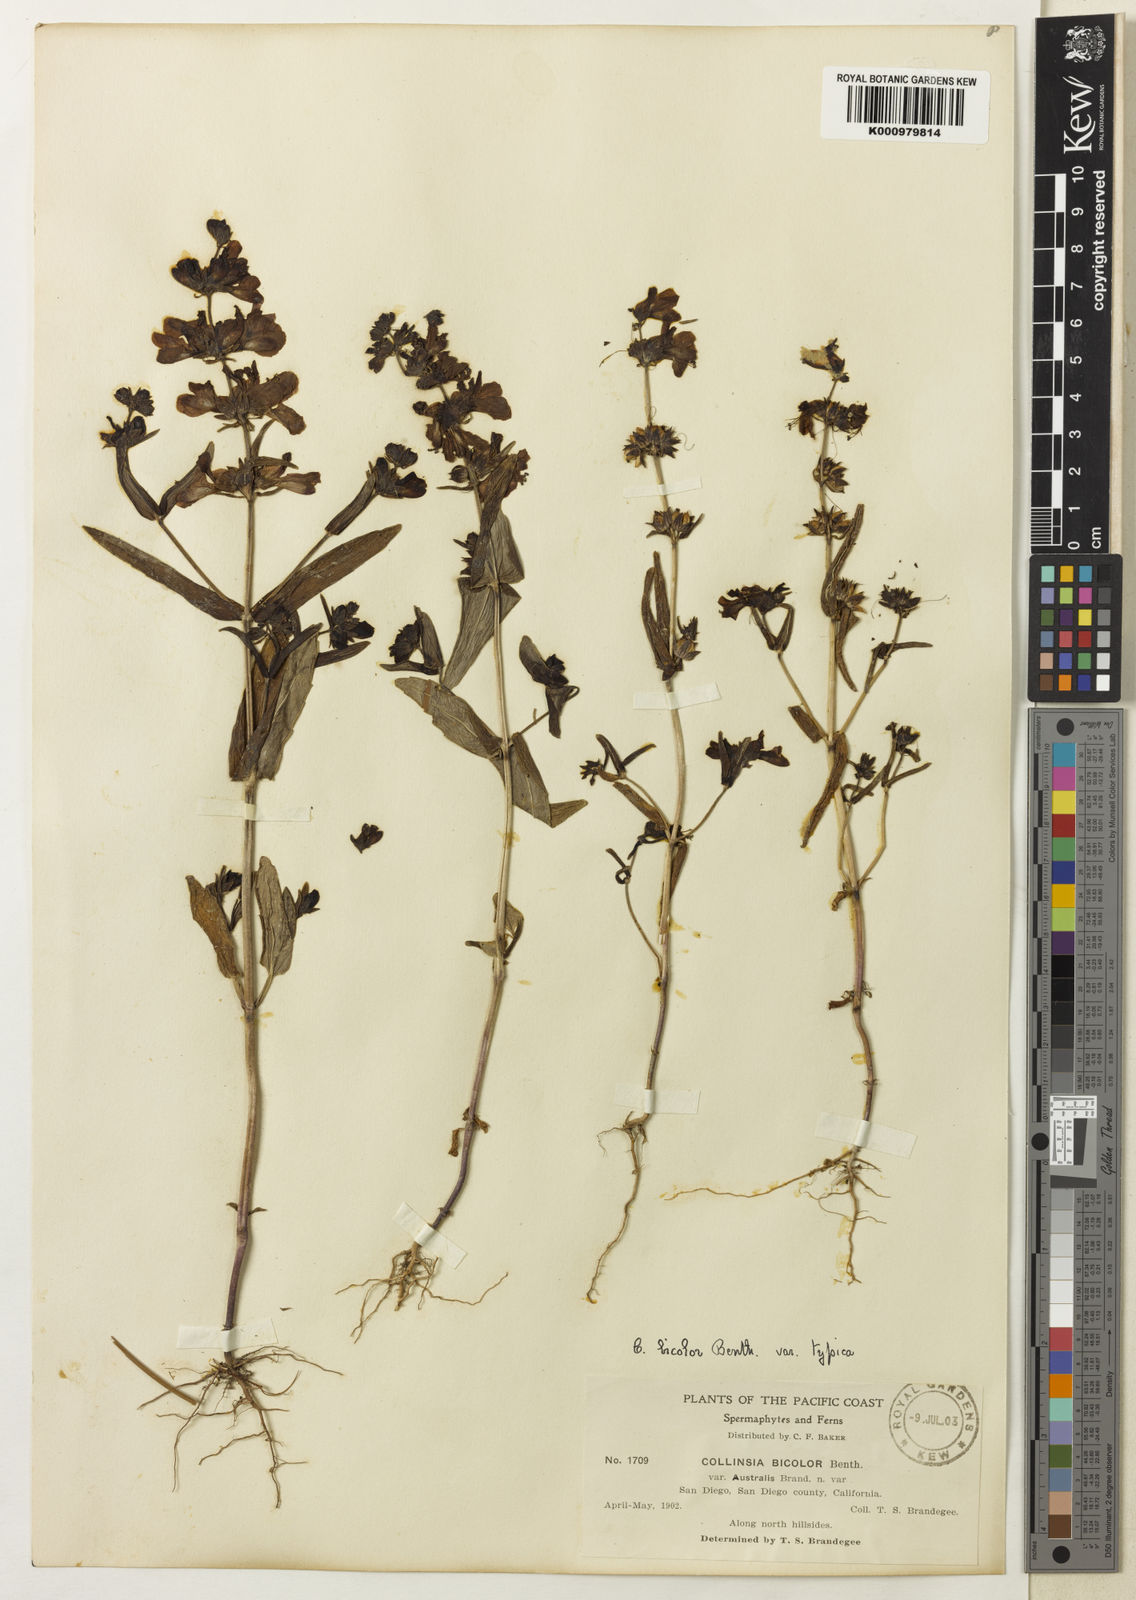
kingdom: Plantae
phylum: Tracheophyta
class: Magnoliopsida
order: Lamiales
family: Plantaginaceae
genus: Collinsia
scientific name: Collinsia heterophylla
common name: Chinese-houses
